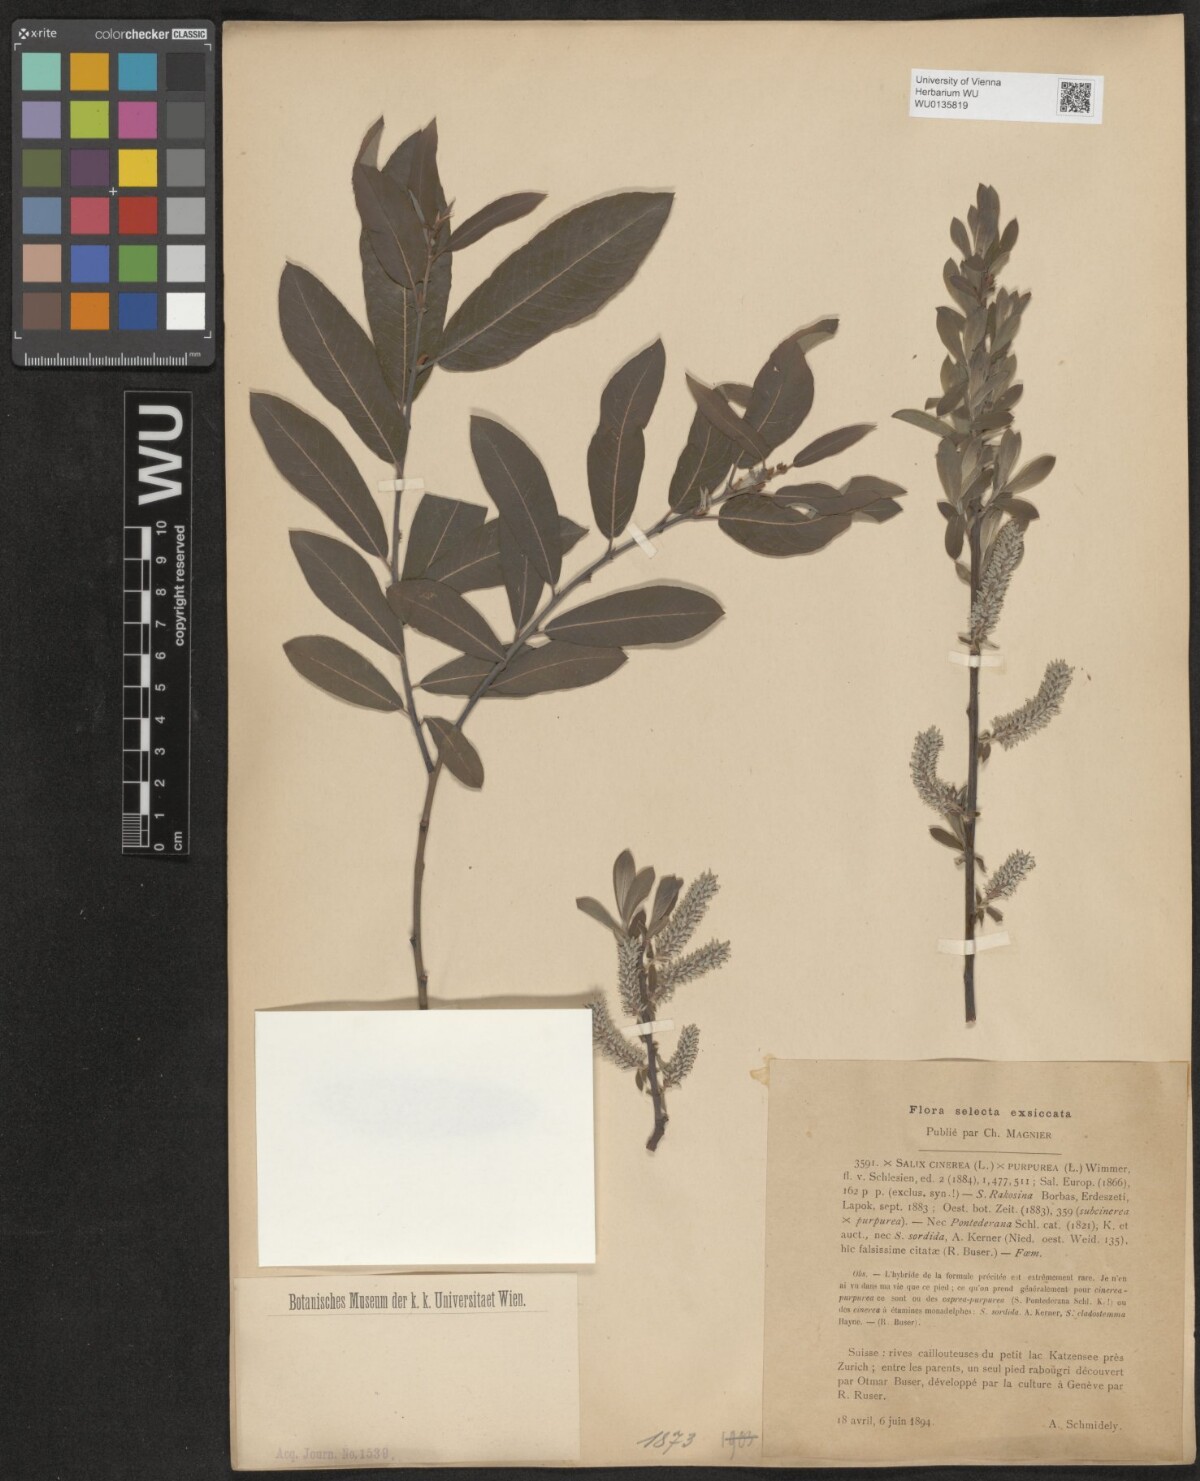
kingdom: Plantae
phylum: Tracheophyta
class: Magnoliopsida
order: Malpighiales
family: Salicaceae
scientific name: Salicaceae
